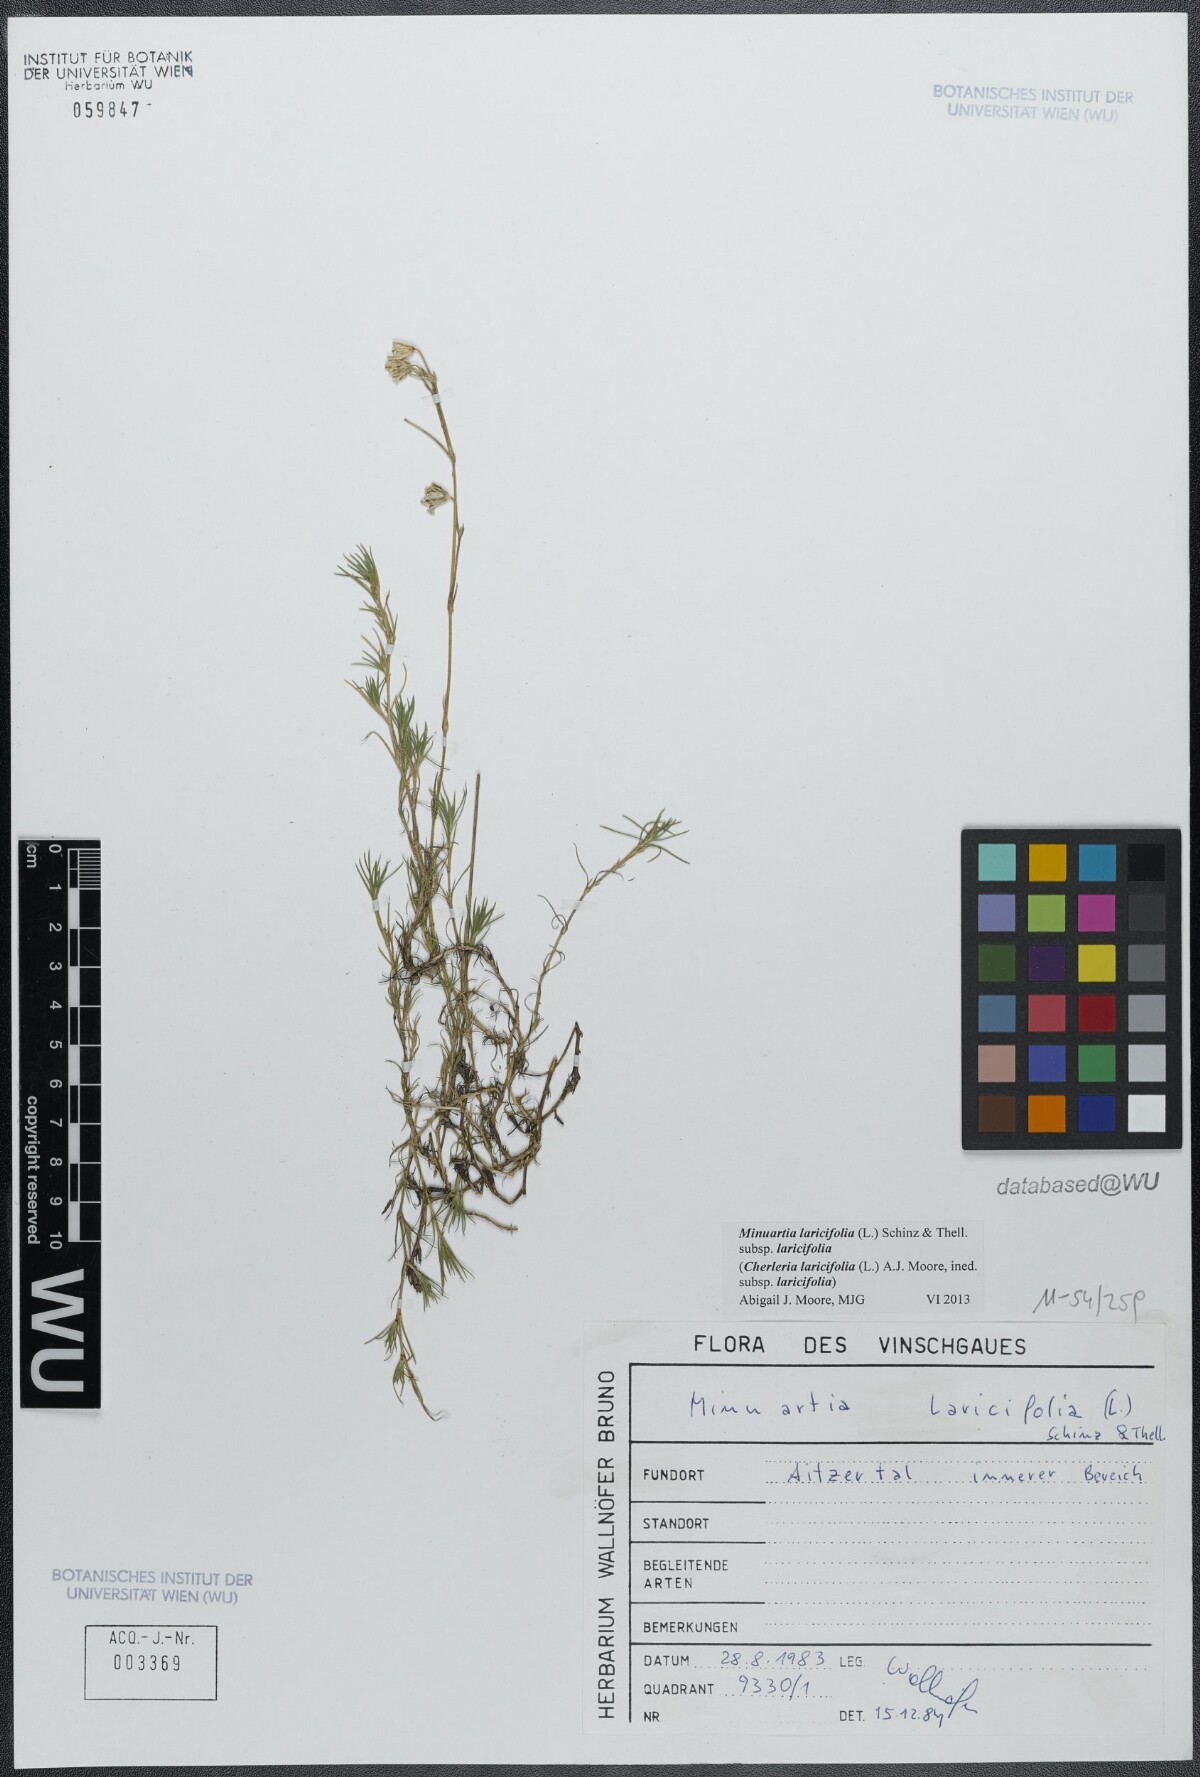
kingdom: Plantae
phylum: Tracheophyta
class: Magnoliopsida
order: Caryophyllales
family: Caryophyllaceae
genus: Cherleria
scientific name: Cherleria laricifolia
